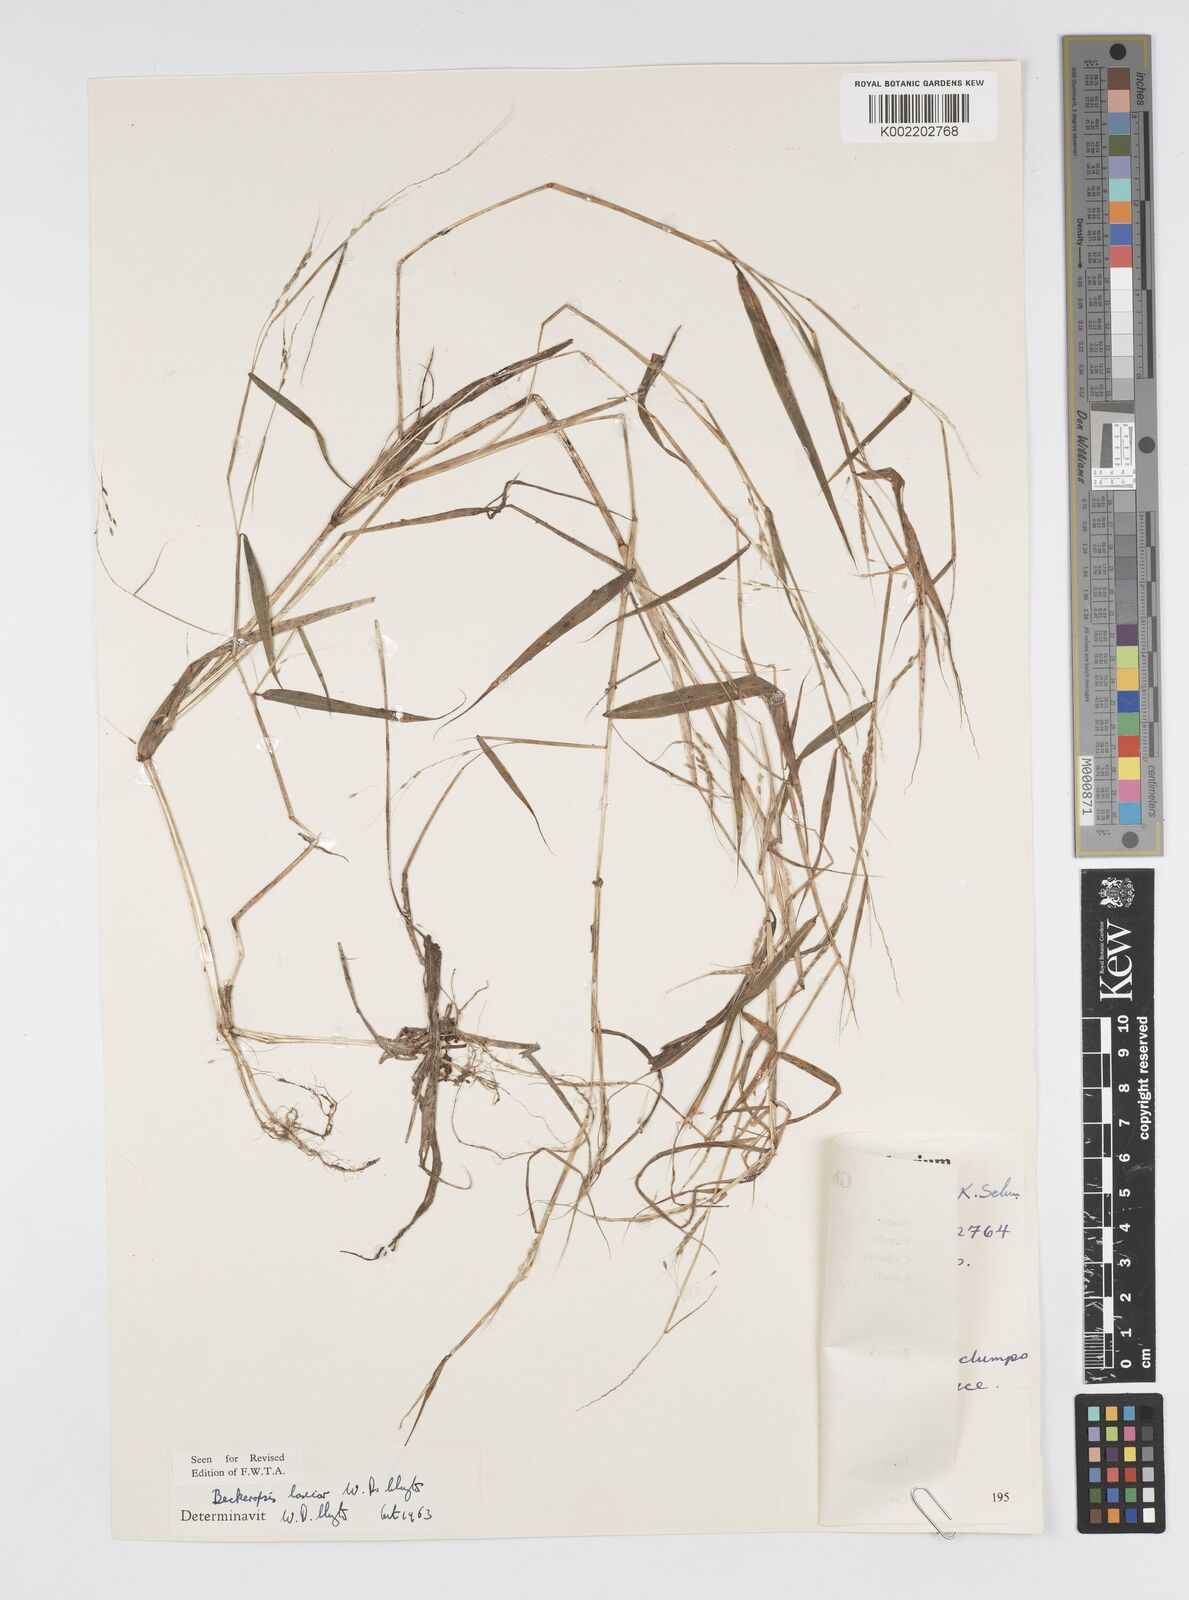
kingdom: Plantae
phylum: Tracheophyta
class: Liliopsida
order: Poales
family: Poaceae
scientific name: Poaceae
